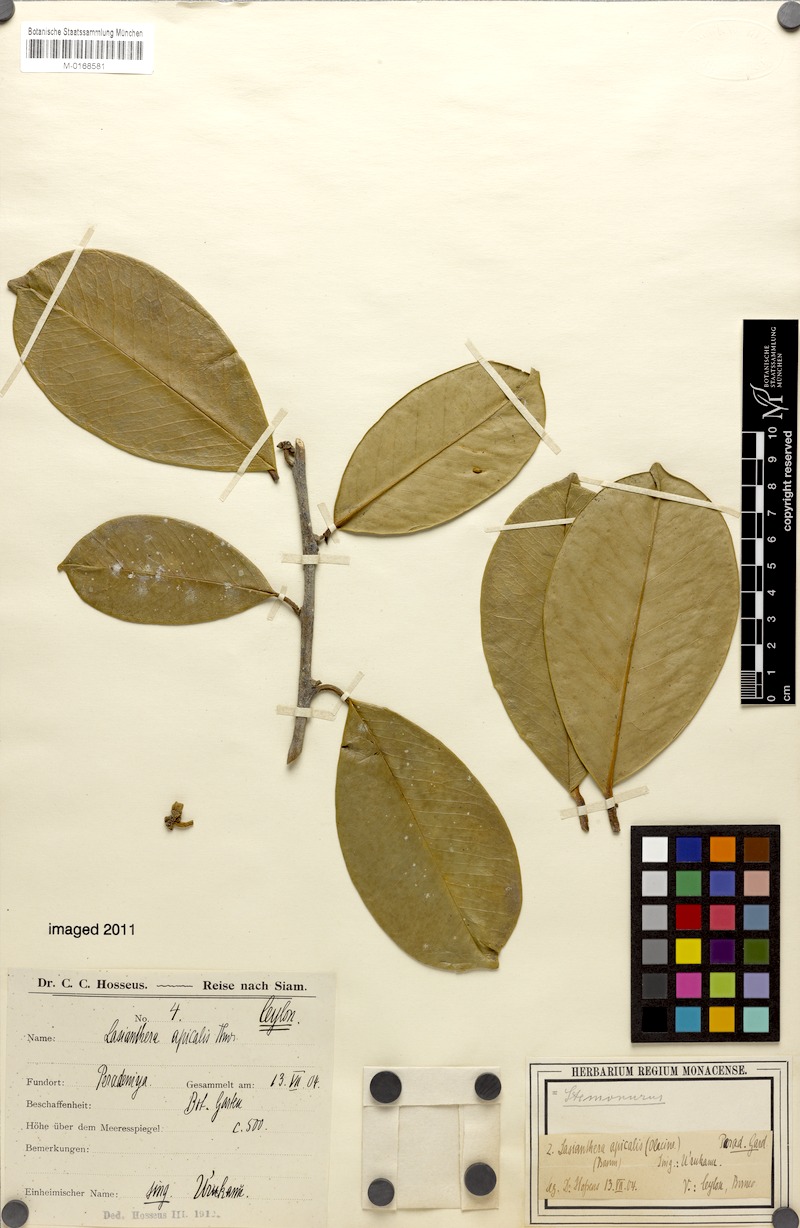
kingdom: Plantae
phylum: Tracheophyta
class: Magnoliopsida
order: Cardiopteridales
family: Stemonuraceae
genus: Lasianthera
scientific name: Lasianthera apicalis
